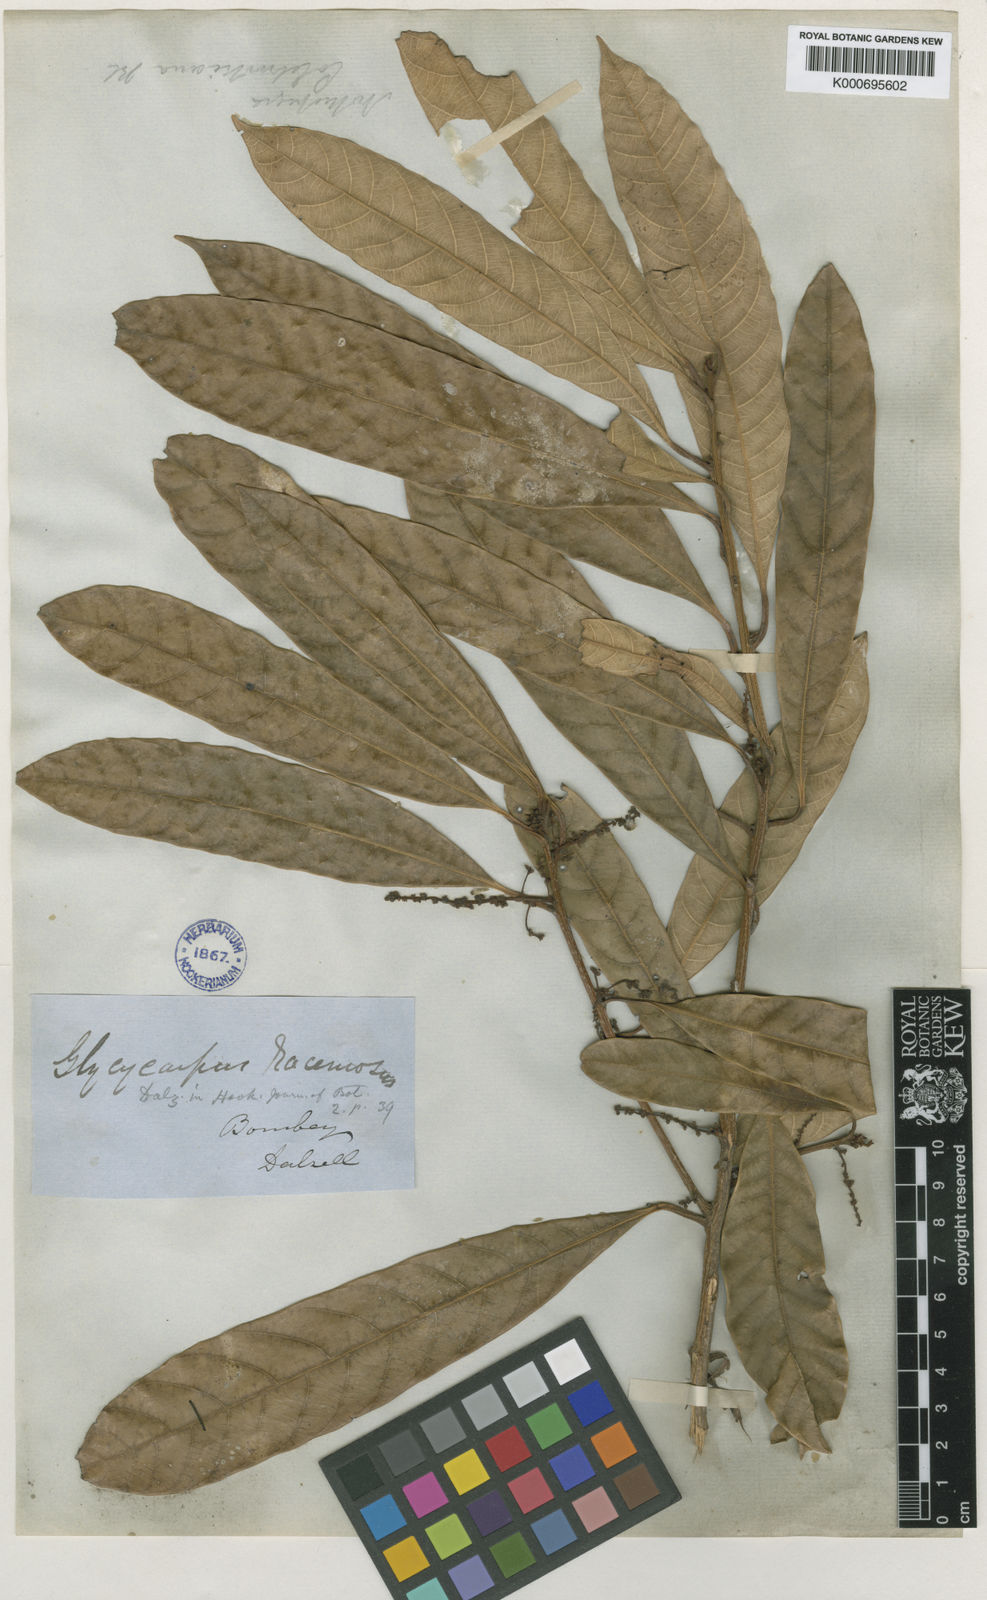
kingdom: Plantae
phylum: Tracheophyta
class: Magnoliopsida
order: Sapindales
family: Anacardiaceae
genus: Nothopegia
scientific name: Nothopegia castaneifolia
